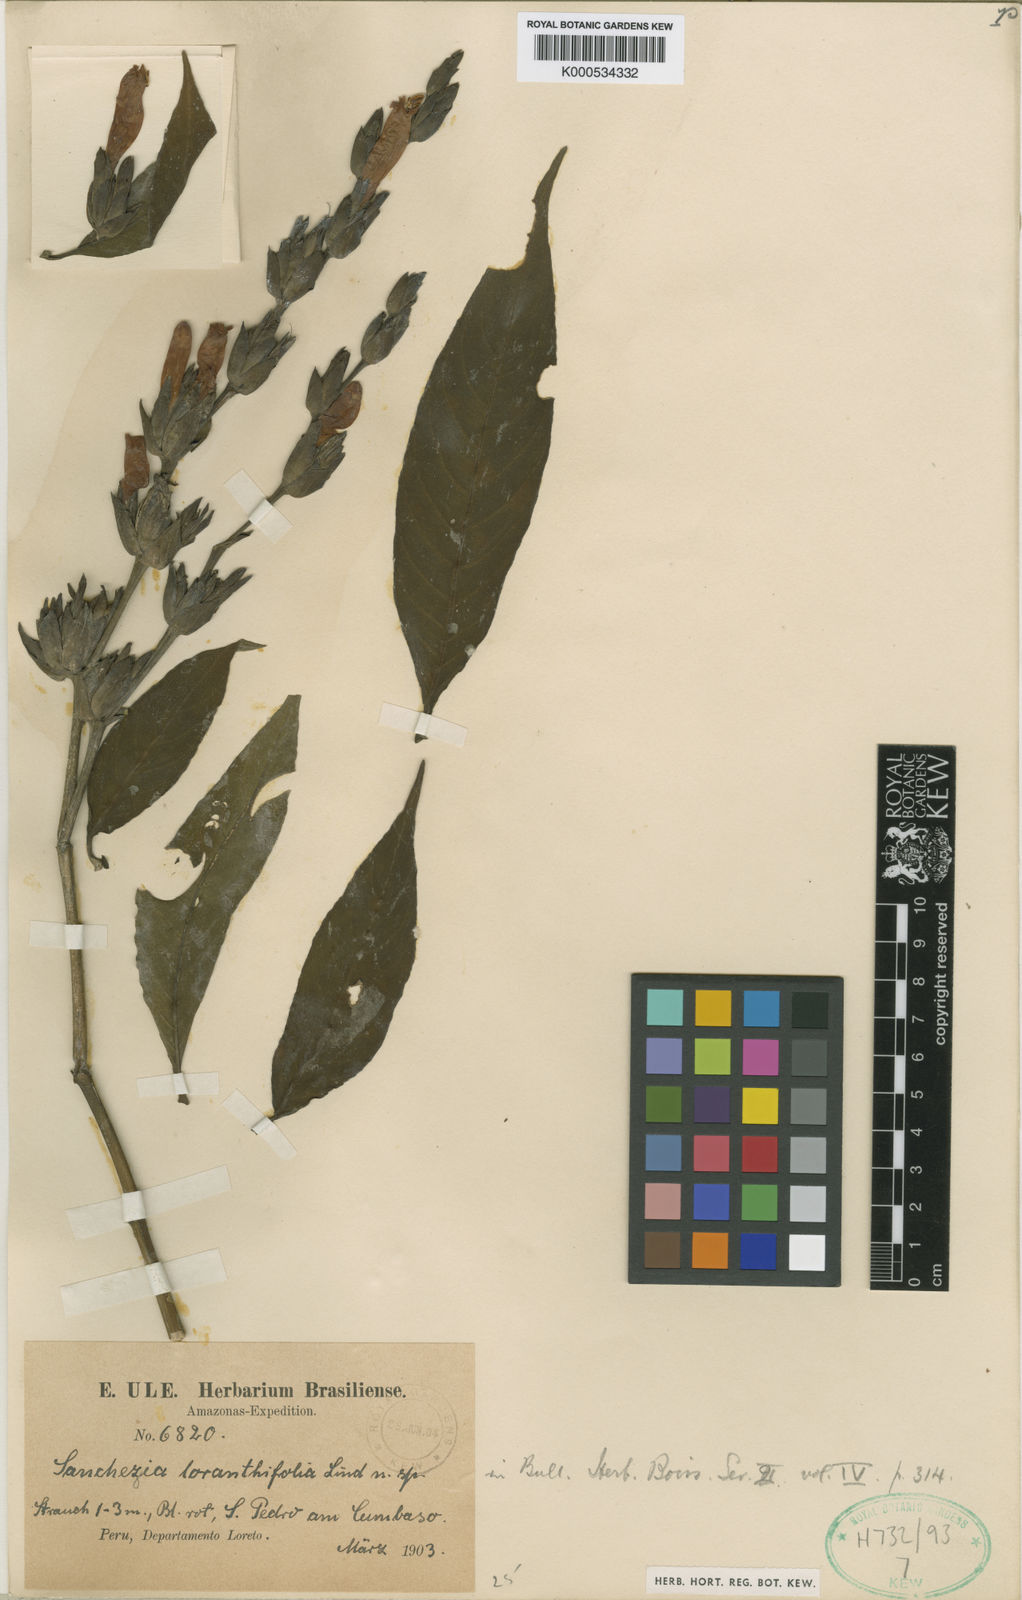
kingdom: Plantae
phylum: Tracheophyta
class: Magnoliopsida
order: Lamiales
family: Acanthaceae
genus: Sanchezia
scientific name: Sanchezia loranthifolia
